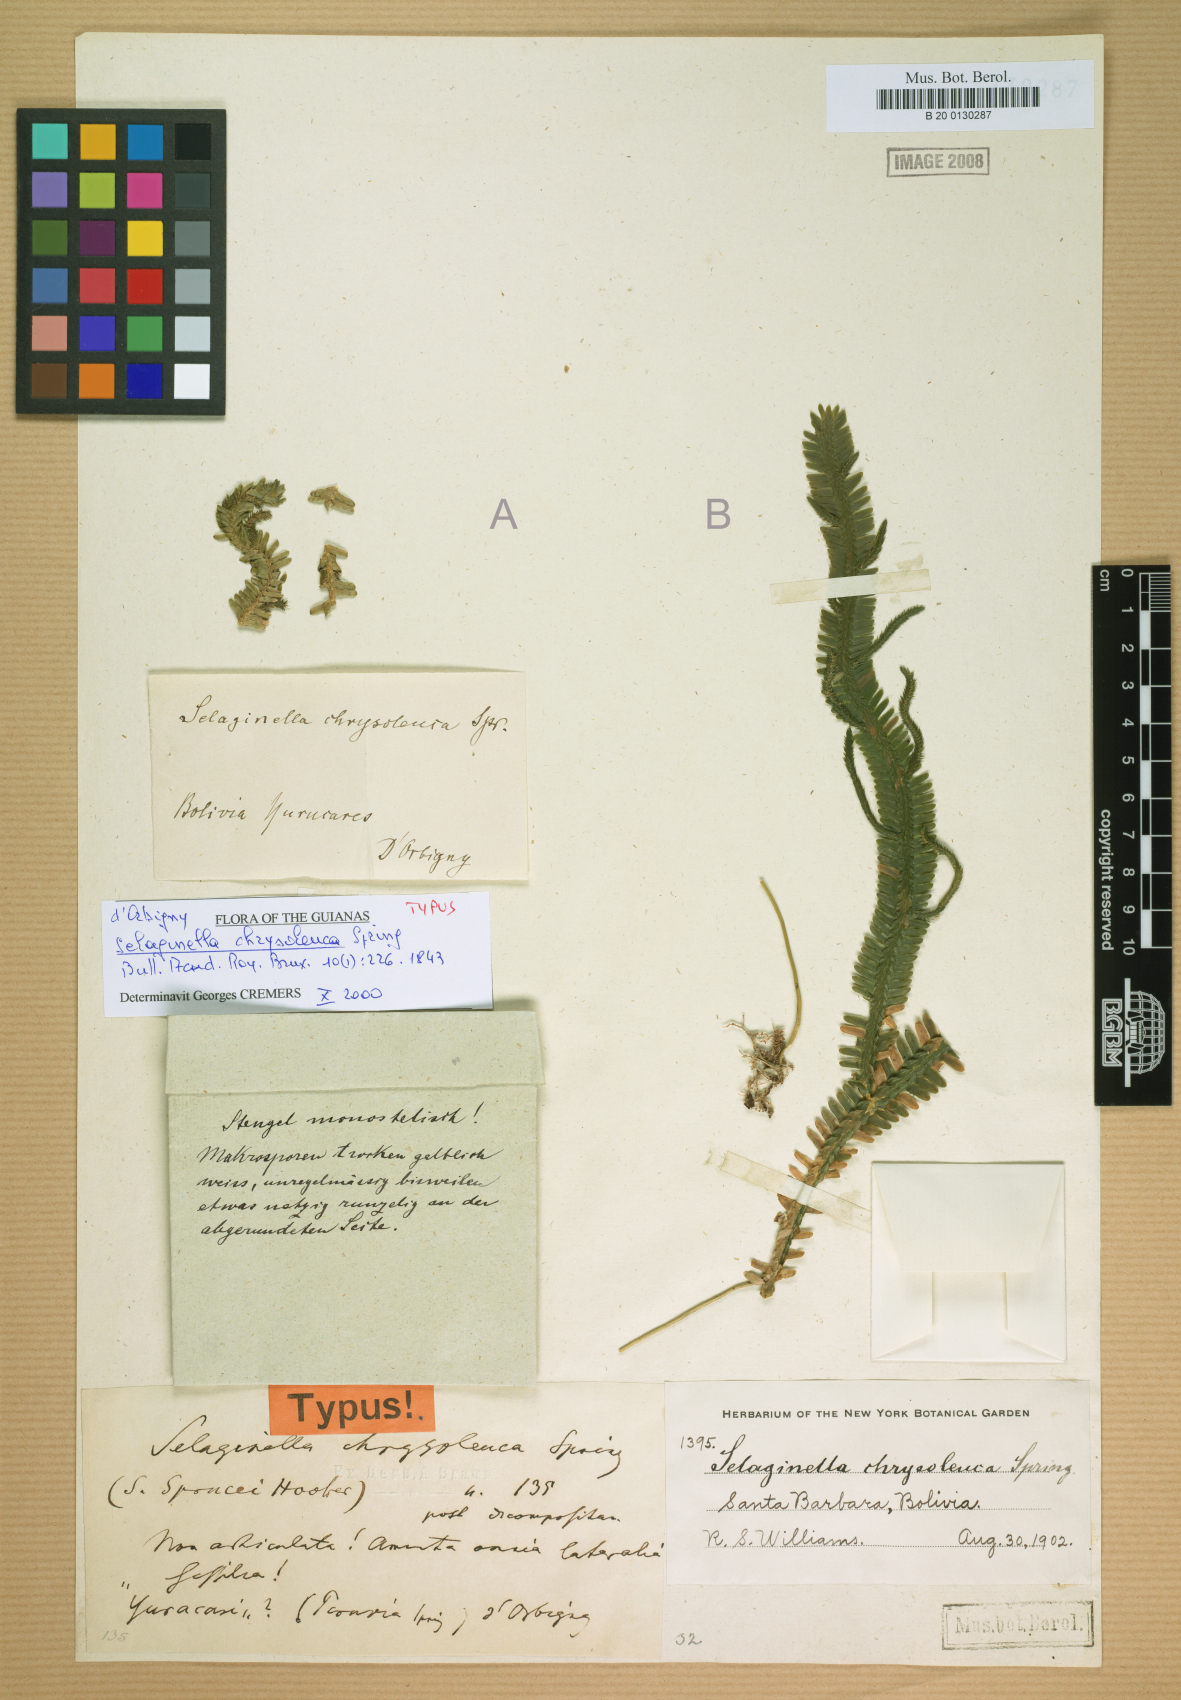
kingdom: Plantae
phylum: Tracheophyta
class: Lycopodiopsida
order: Selaginellales
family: Selaginellaceae
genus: Selaginella
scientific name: Selaginella chrysoleuca
